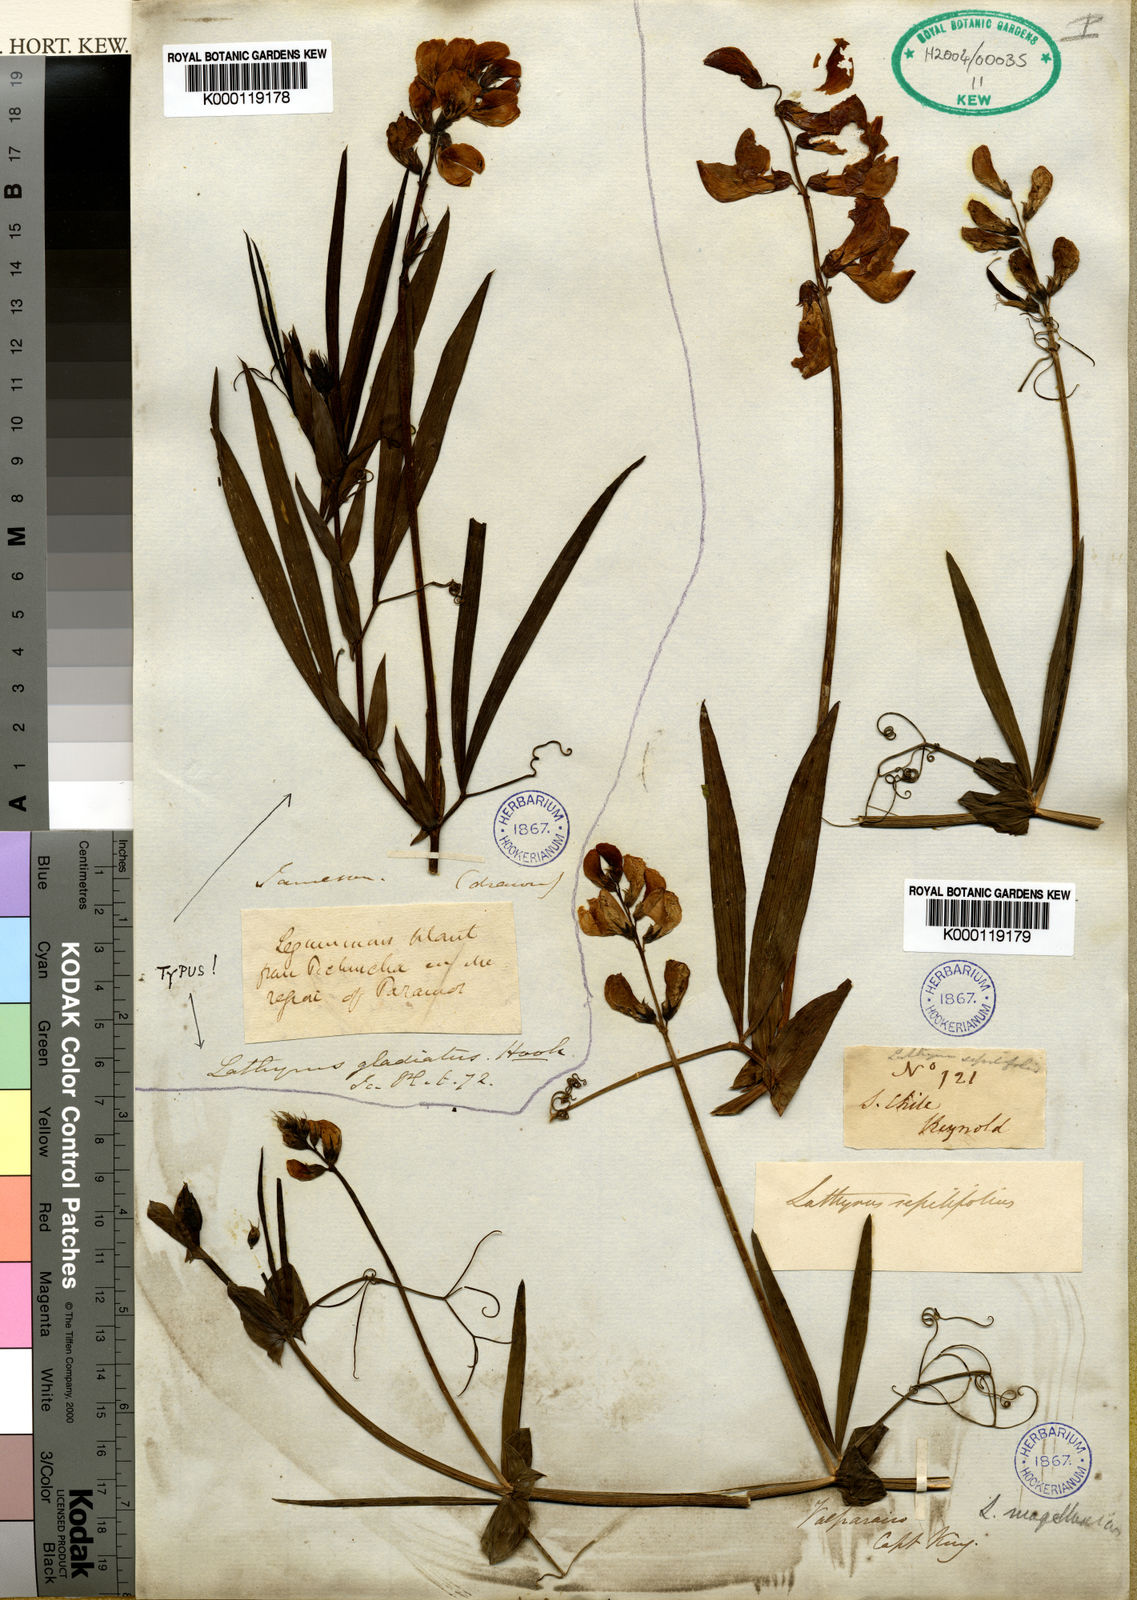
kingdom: Plantae
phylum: Tracheophyta
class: Magnoliopsida
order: Fabales
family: Fabaceae
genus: Lathyrus
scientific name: Lathyrus hookeri
